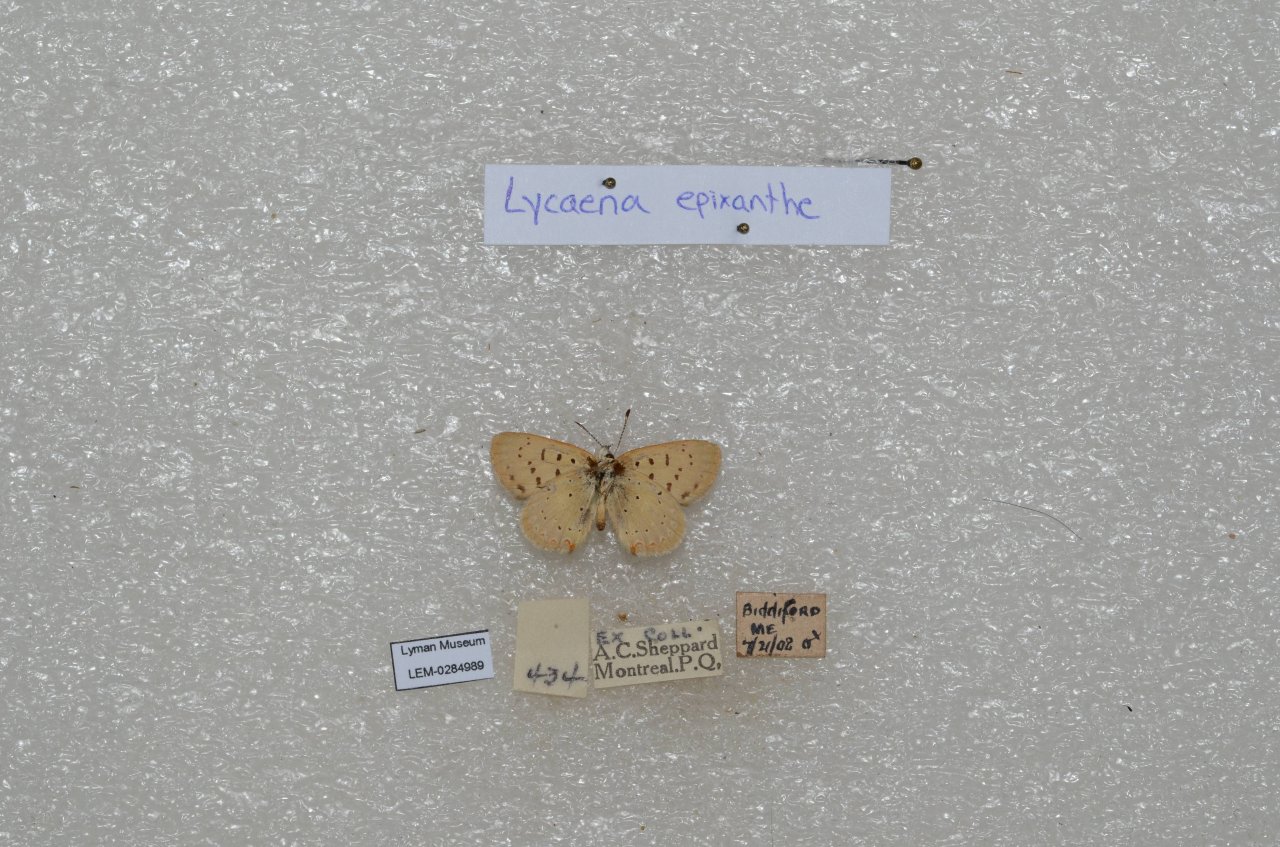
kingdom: Animalia
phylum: Arthropoda
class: Insecta
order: Lepidoptera
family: Sesiidae
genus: Sesia
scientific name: Sesia Lycaena epixanthe
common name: Bog Copper
